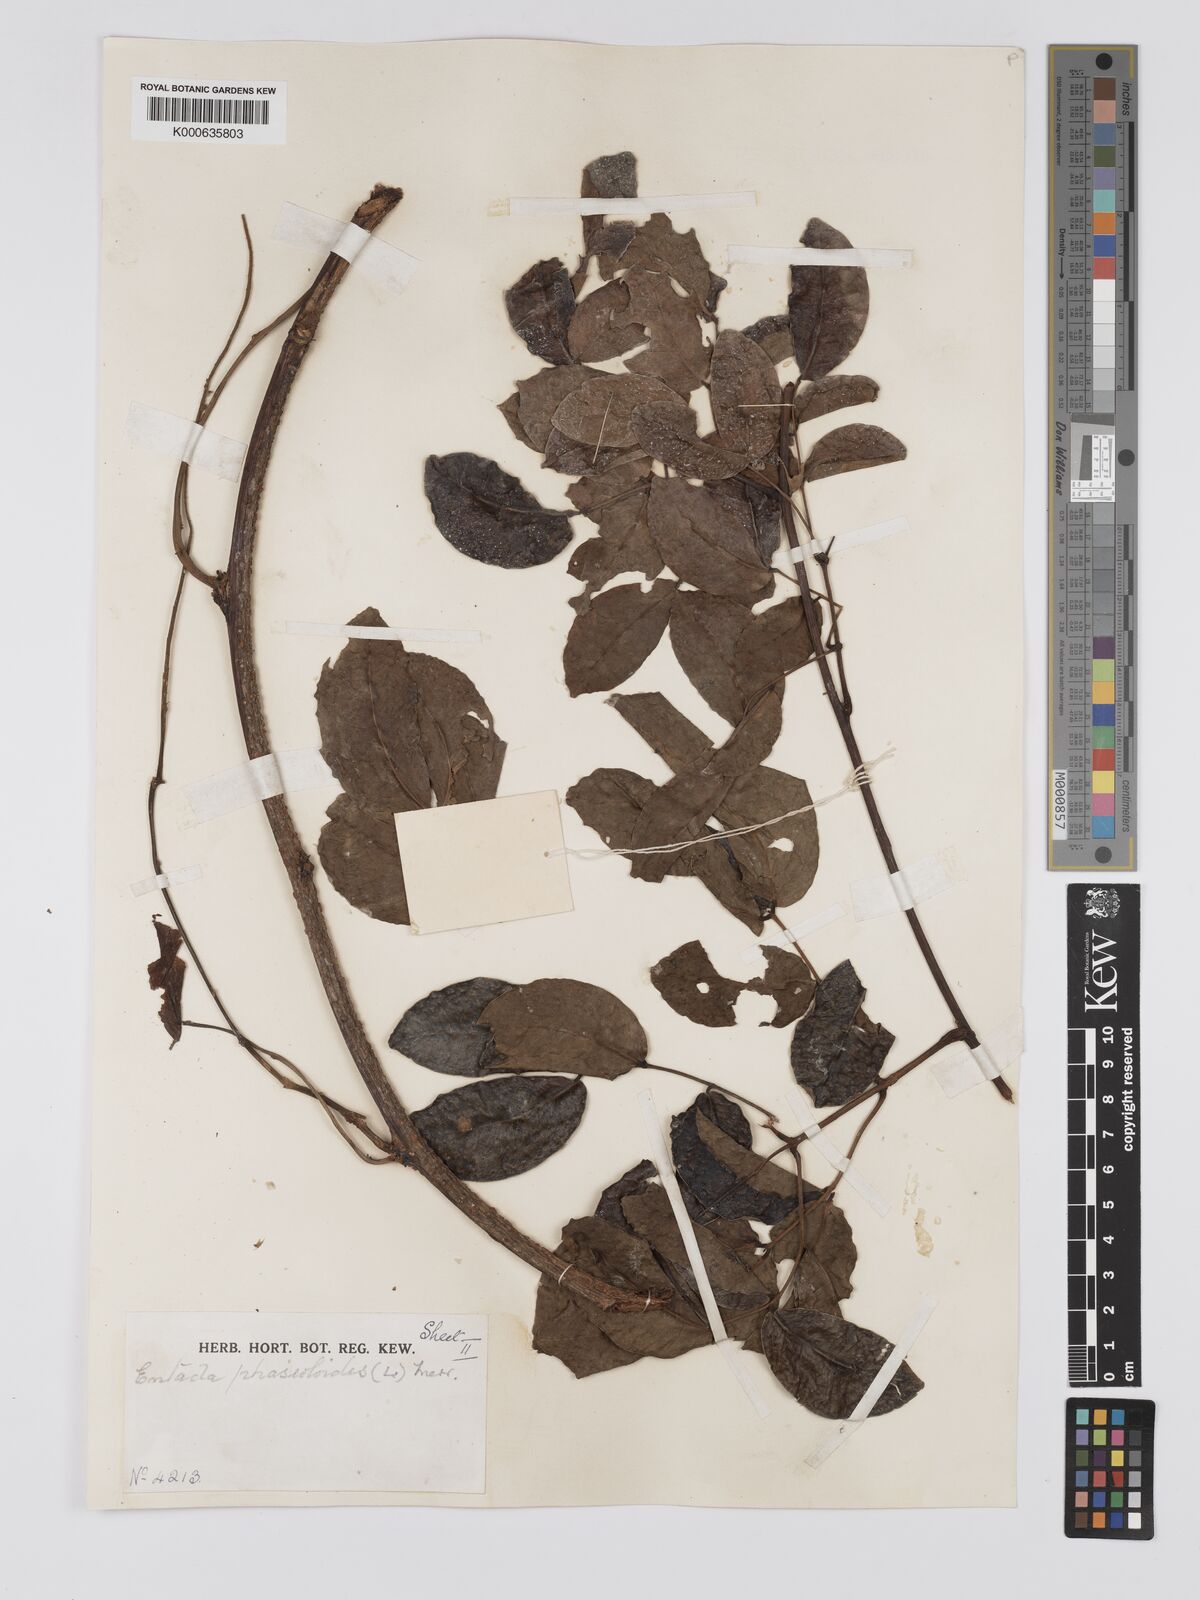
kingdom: Plantae
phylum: Tracheophyta
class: Magnoliopsida
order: Fabales
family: Fabaceae
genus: Entada
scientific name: Entada phaseoloides
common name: Matchbox-bean
